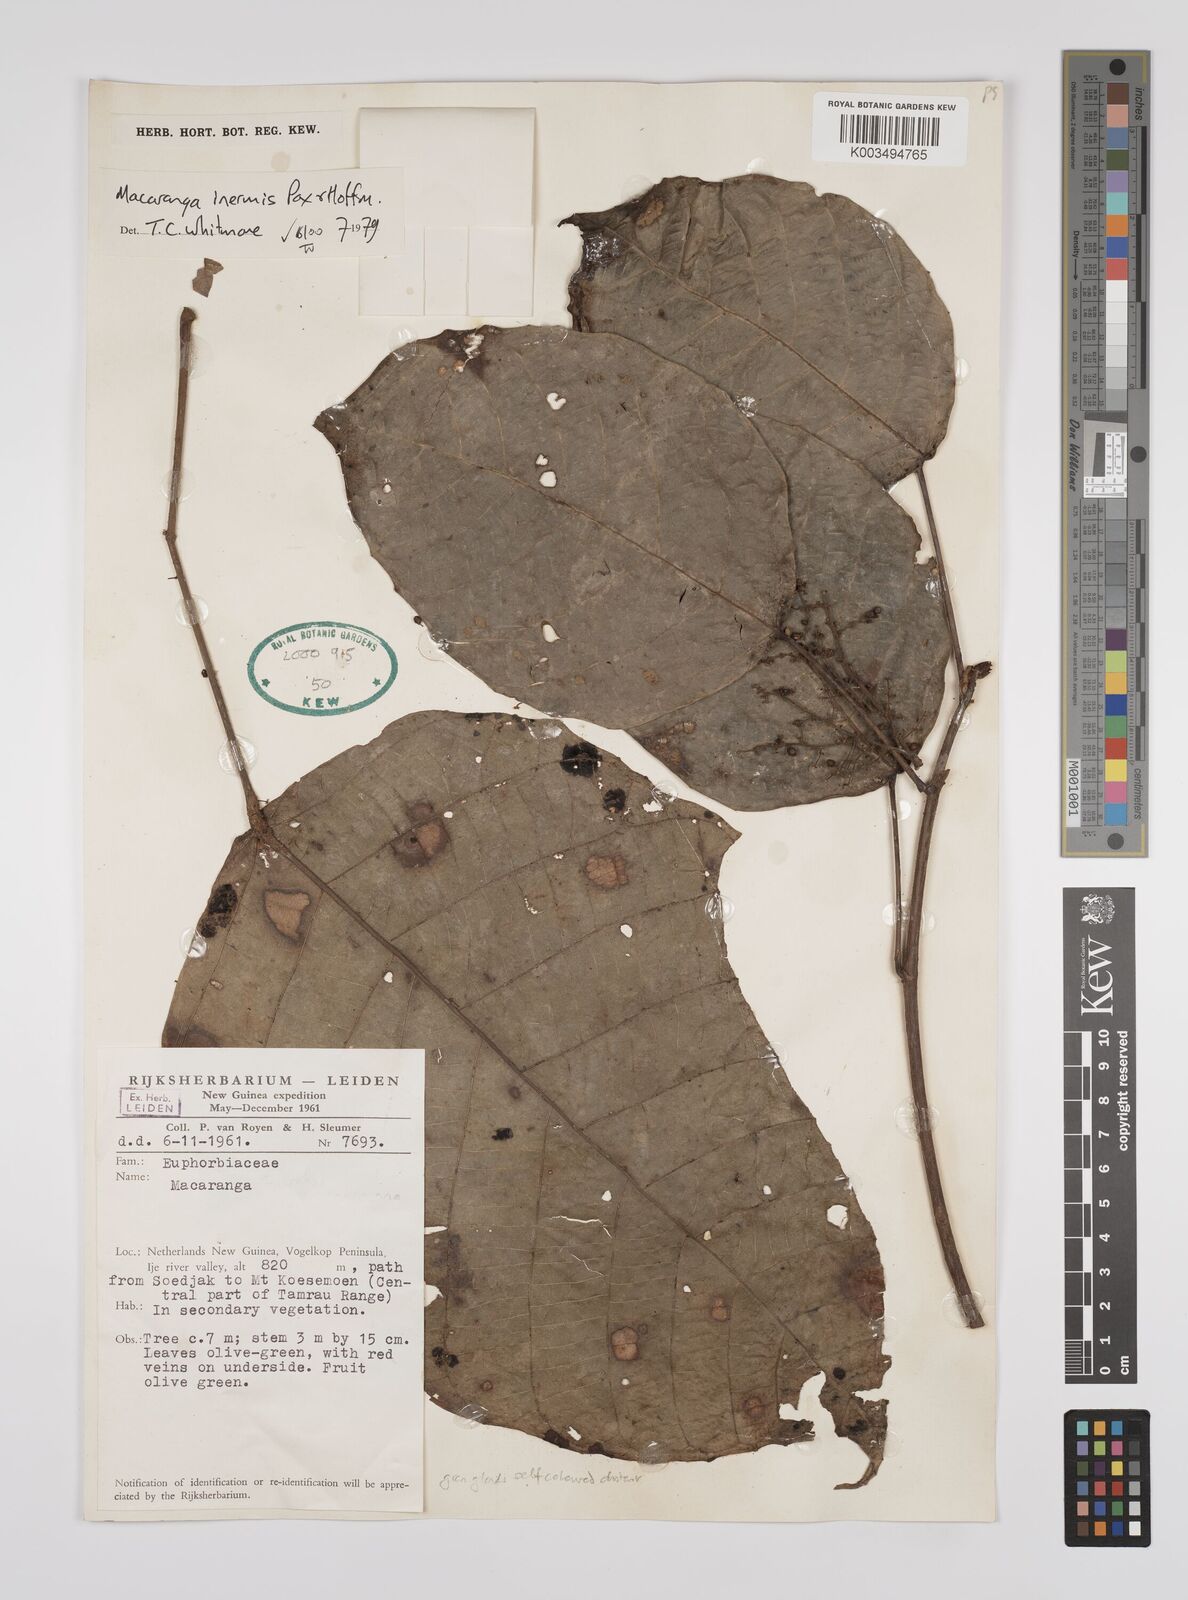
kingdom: Plantae
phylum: Tracheophyta
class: Magnoliopsida
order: Malpighiales
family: Euphorbiaceae
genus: Macaranga
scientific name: Macaranga inermis
